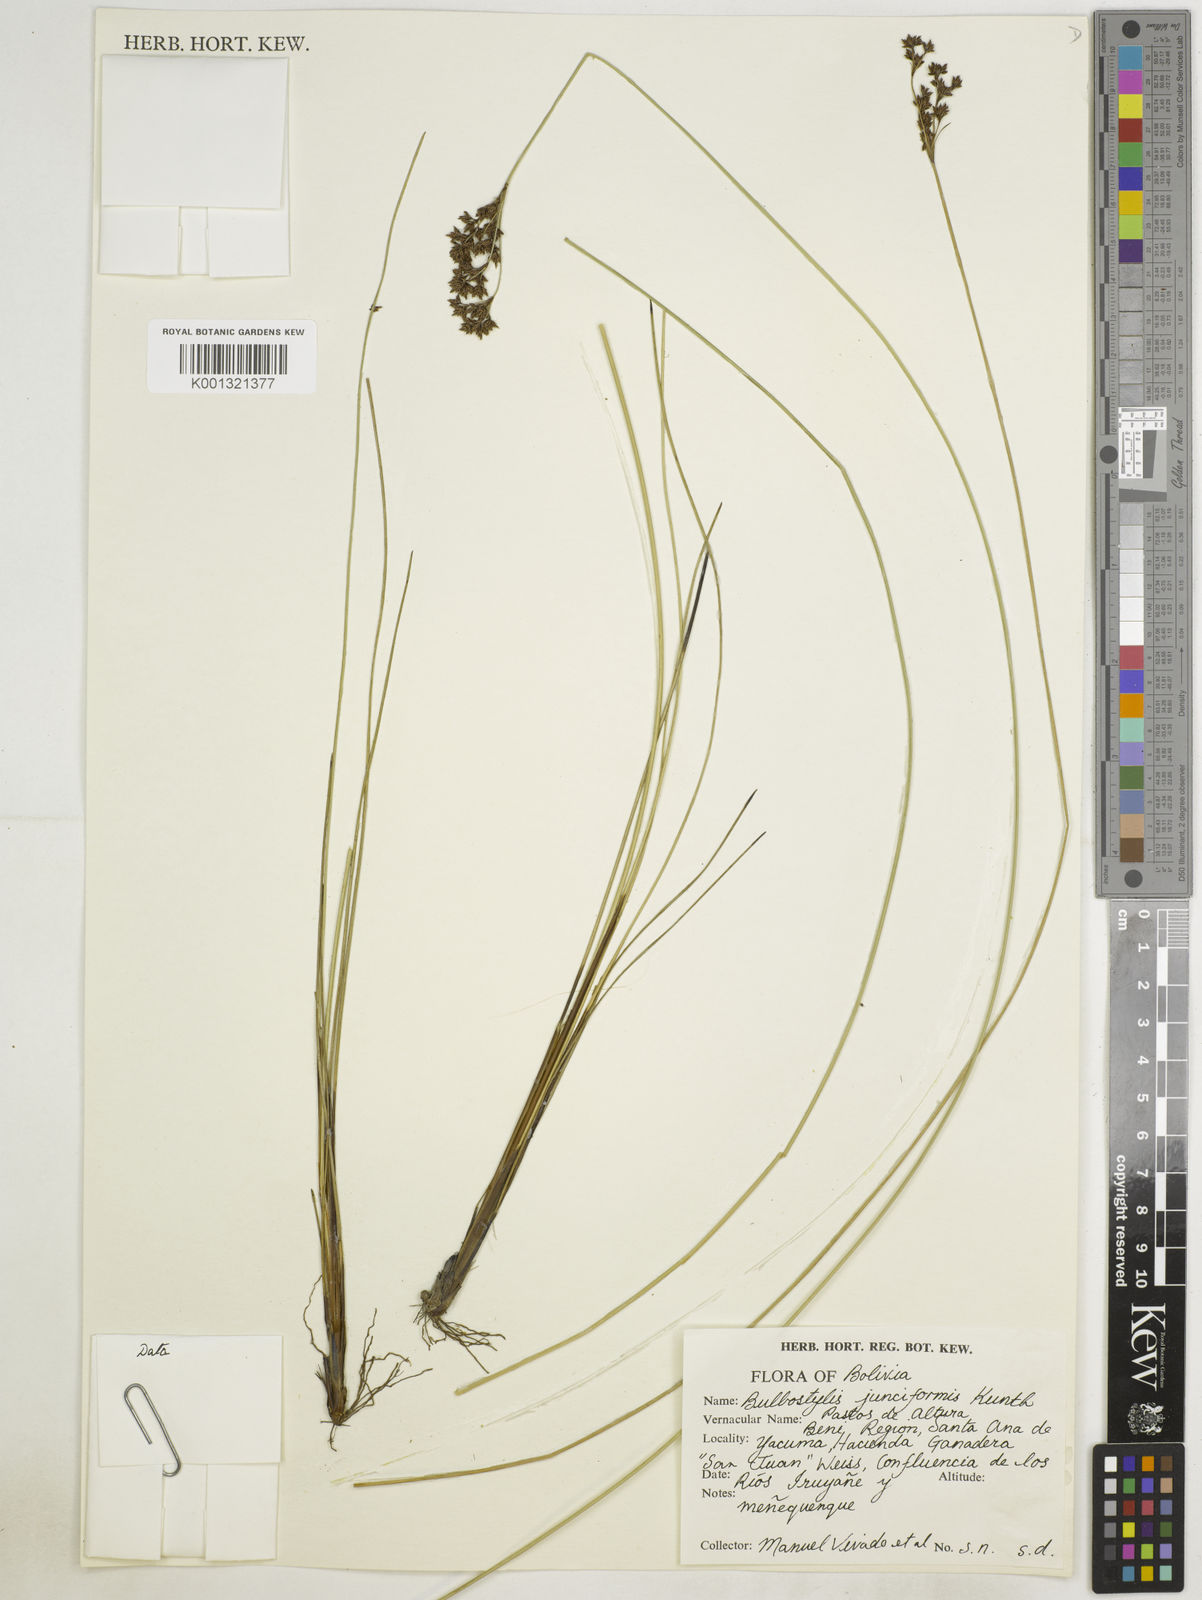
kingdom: Plantae
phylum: Tracheophyta
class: Liliopsida
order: Poales
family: Cyperaceae
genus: Bulbostylis
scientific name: Bulbostylis junciformis
